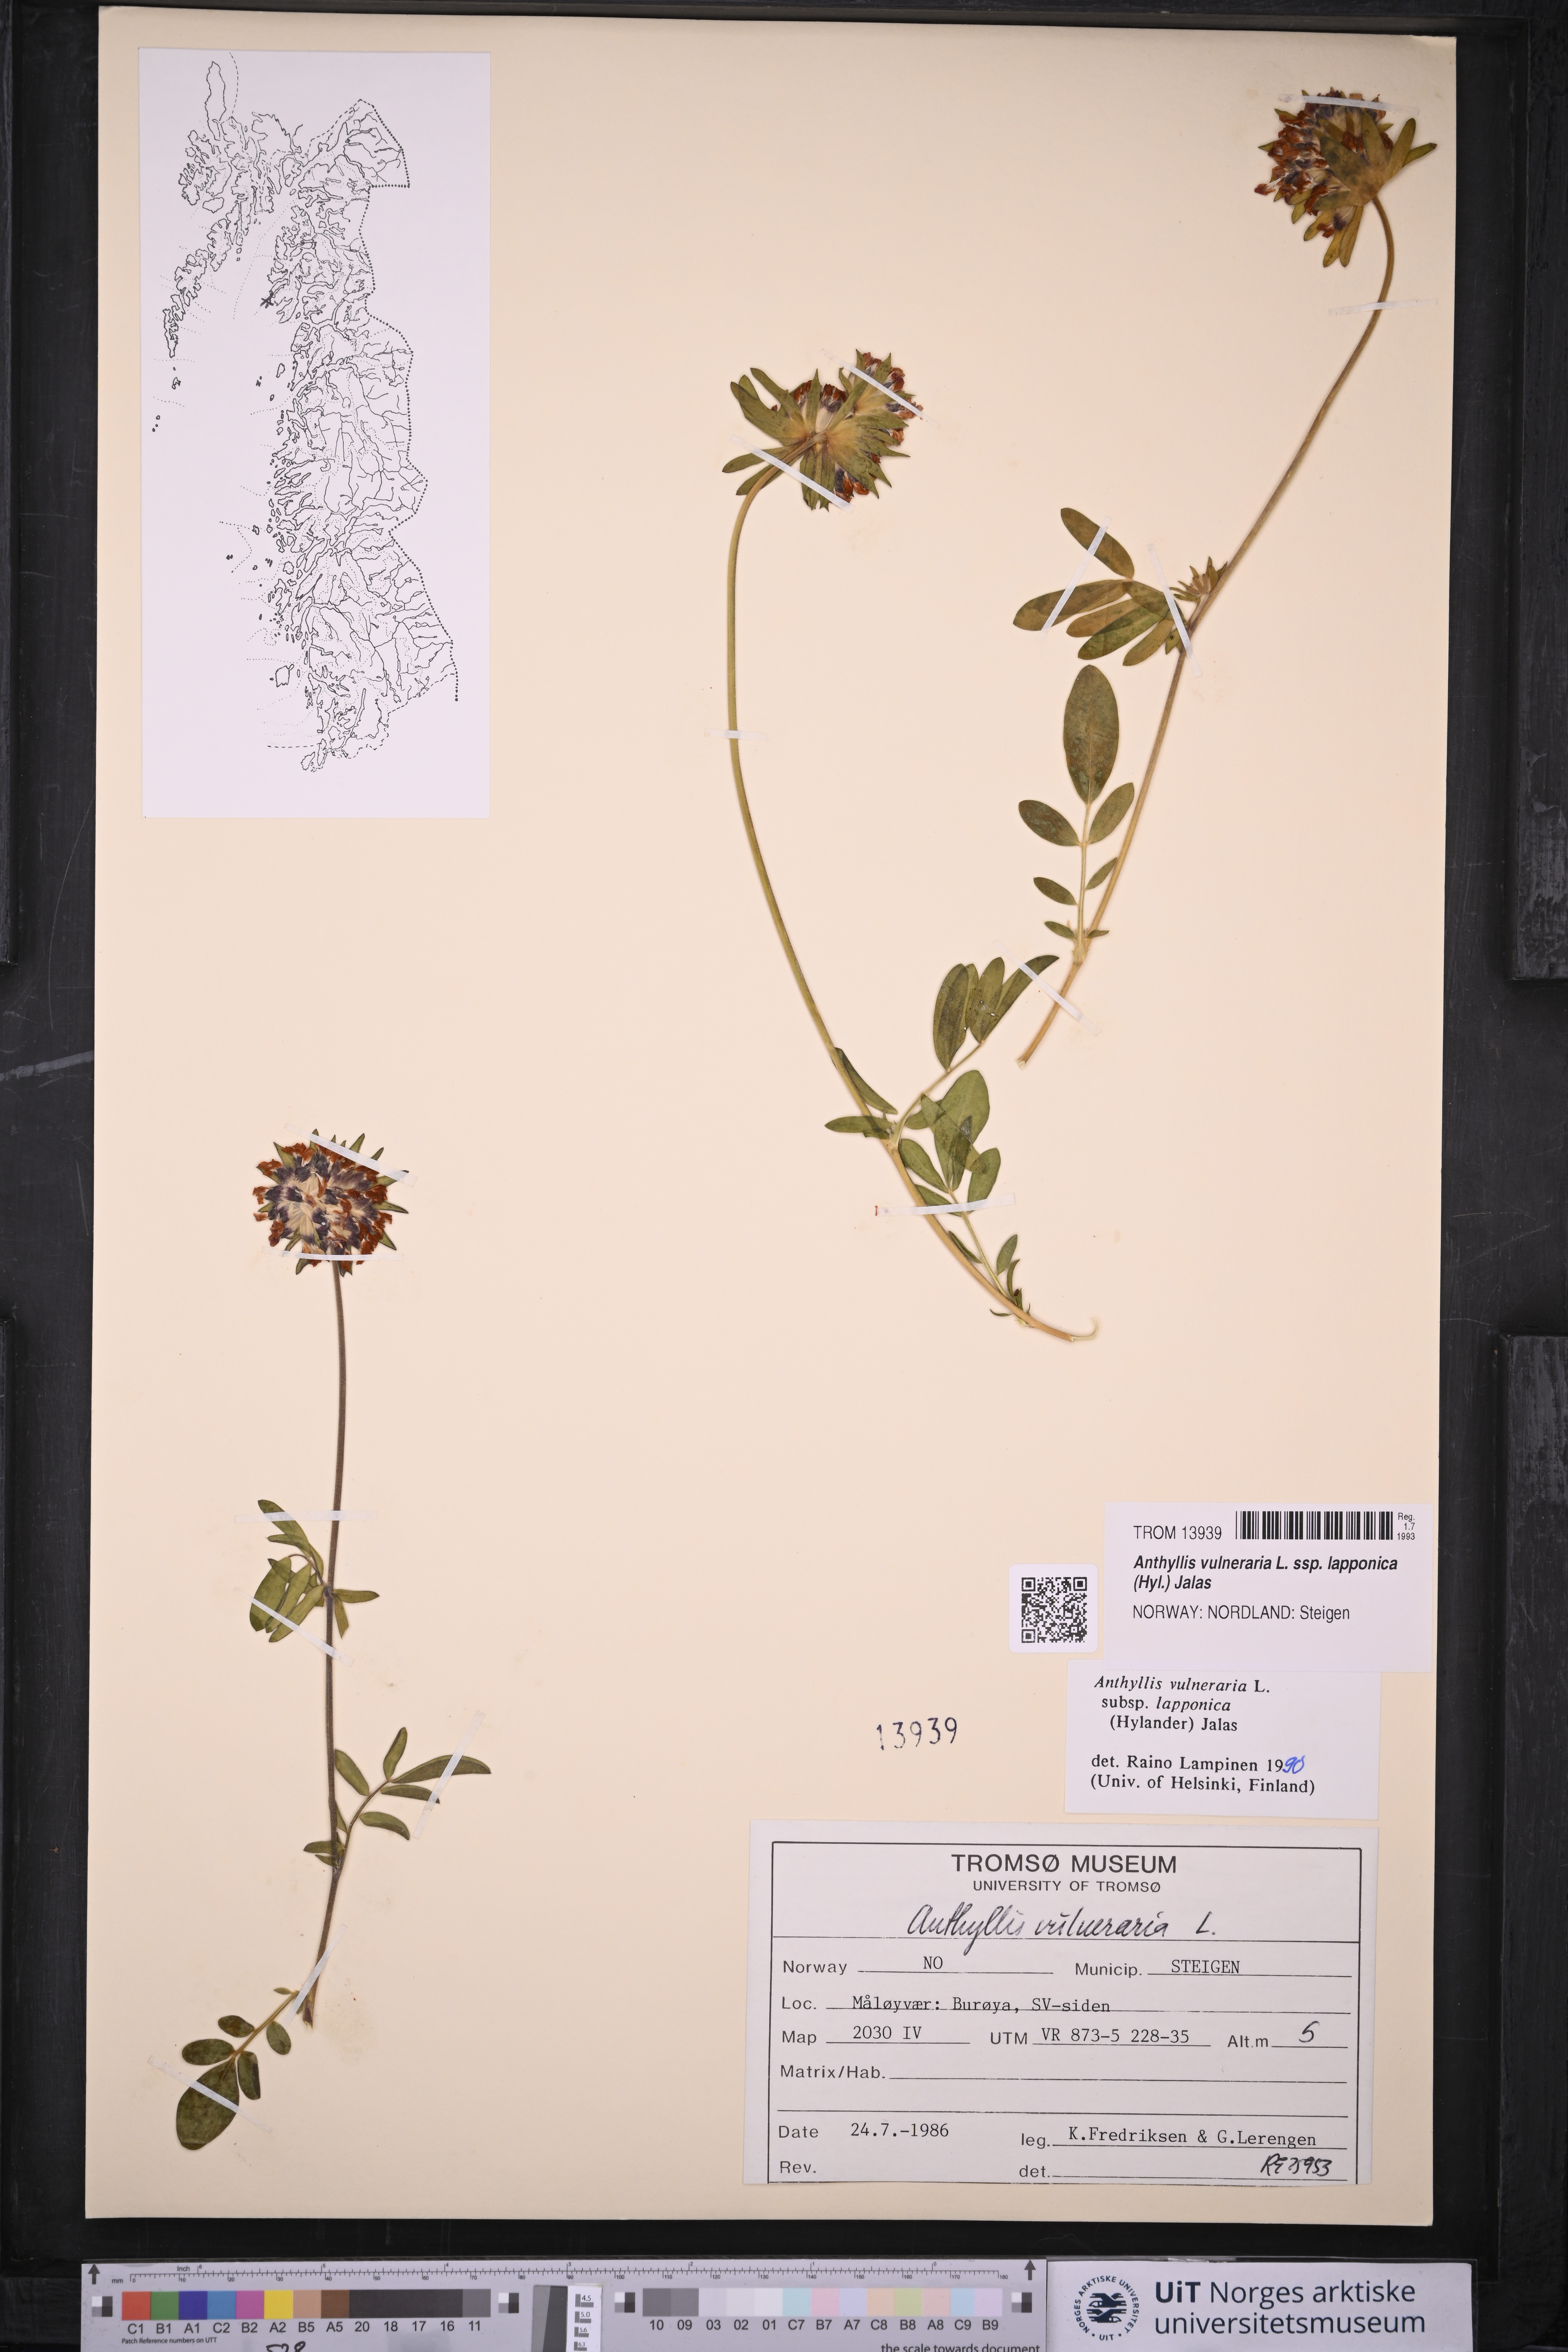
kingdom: Plantae
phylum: Tracheophyta
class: Magnoliopsida
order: Fabales
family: Fabaceae
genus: Anthyllis
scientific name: Anthyllis vulneraria
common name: Kidney vetch
